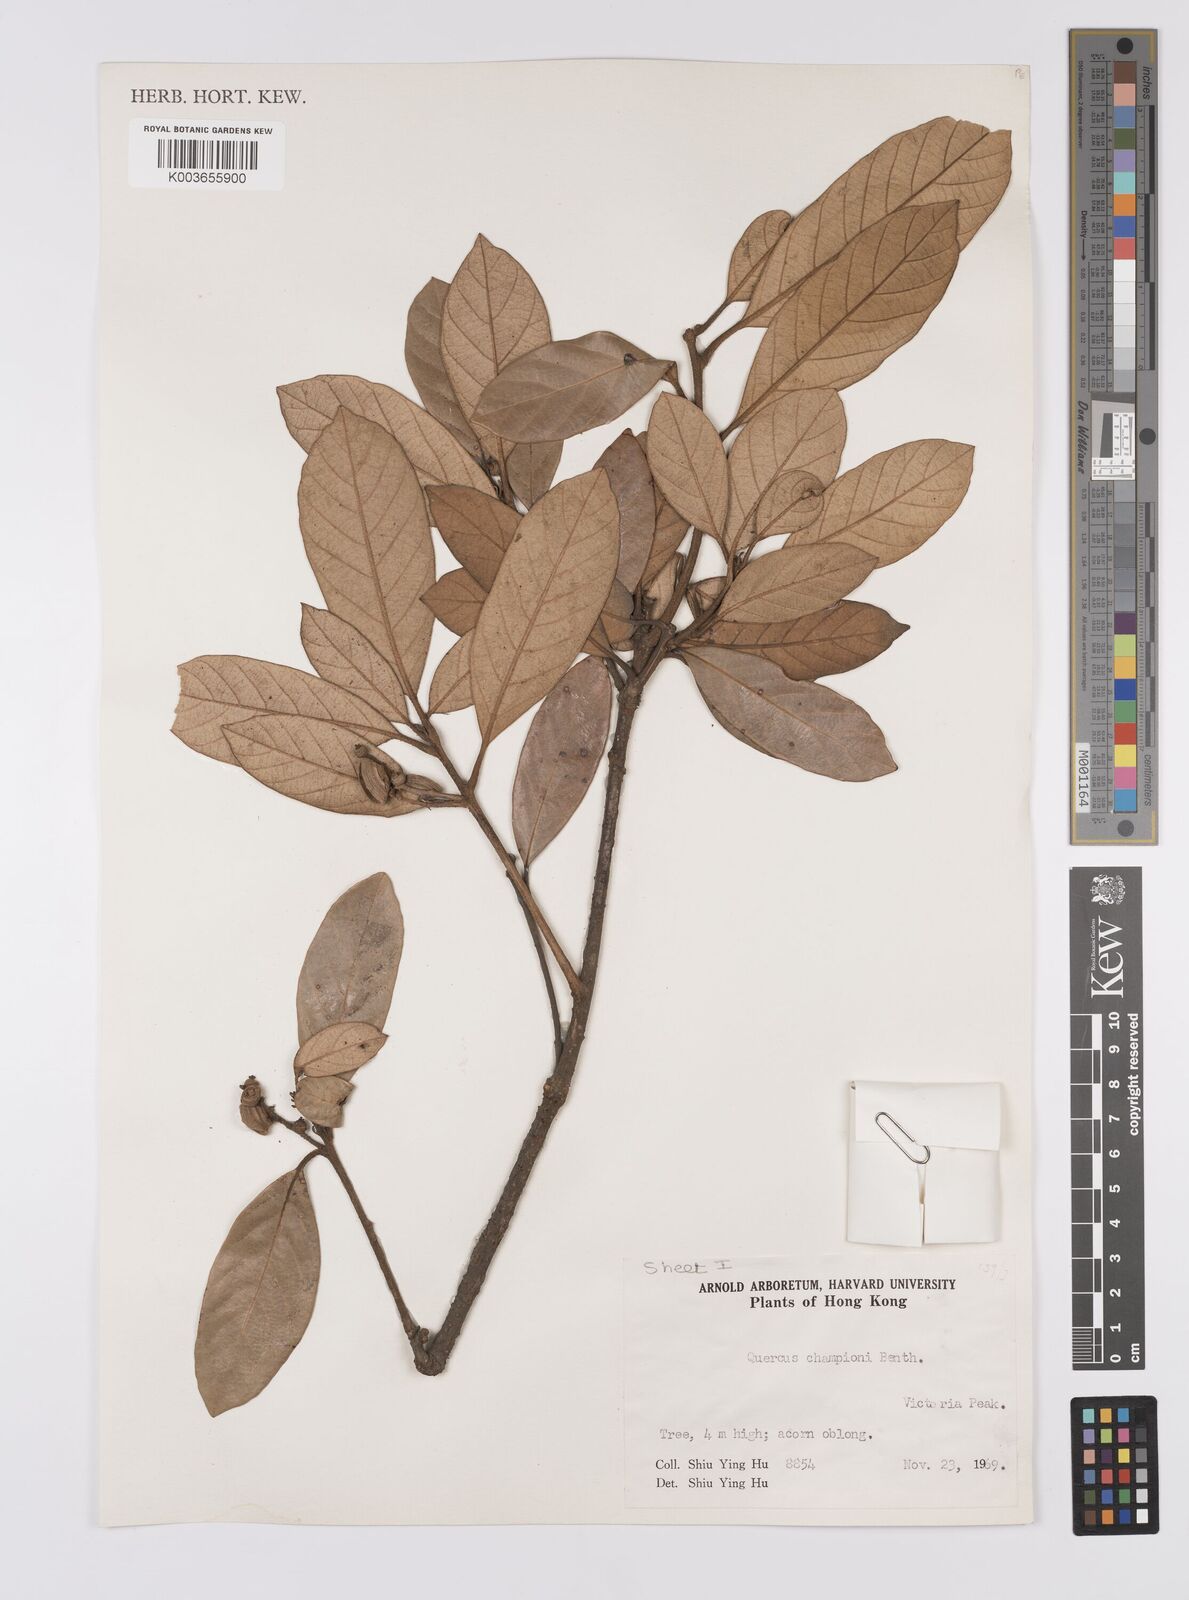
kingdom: Plantae
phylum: Tracheophyta
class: Magnoliopsida
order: Fagales
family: Fagaceae
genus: Quercus
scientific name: Quercus championii
